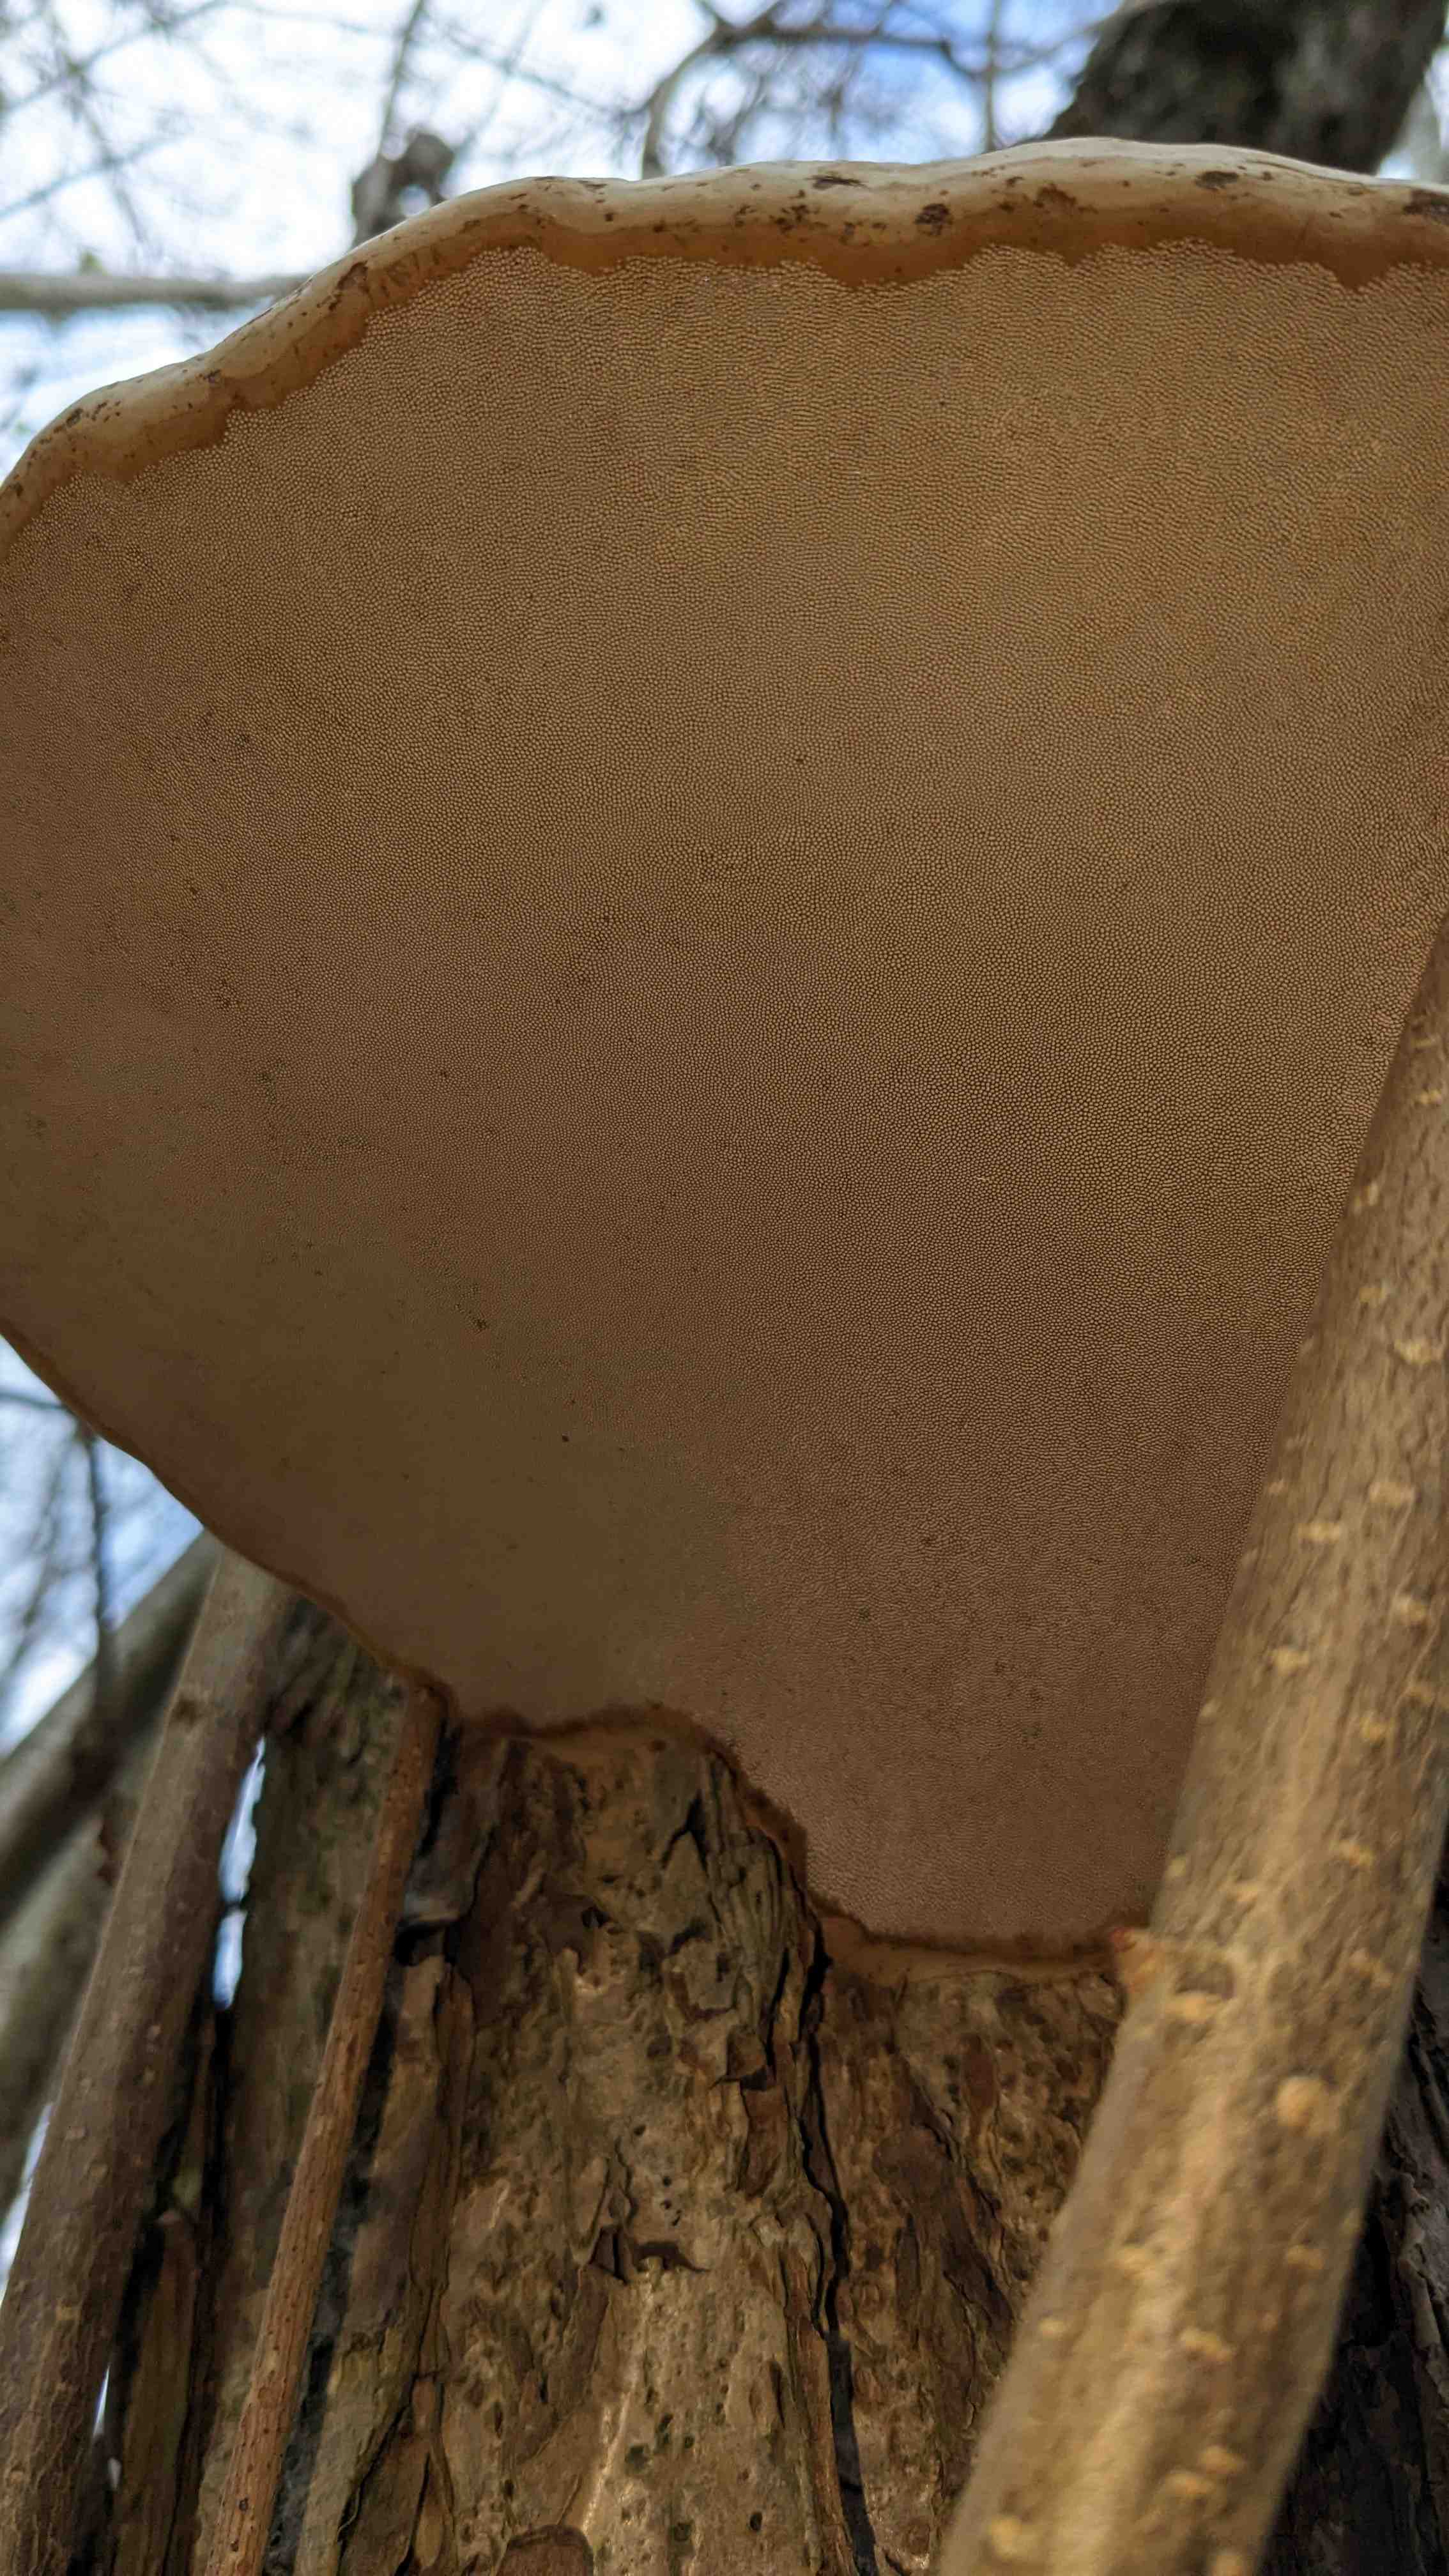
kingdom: Fungi
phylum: Basidiomycota
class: Agaricomycetes
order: Polyporales
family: Polyporaceae
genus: Fomes
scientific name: Fomes fomentarius
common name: tøndersvamp
